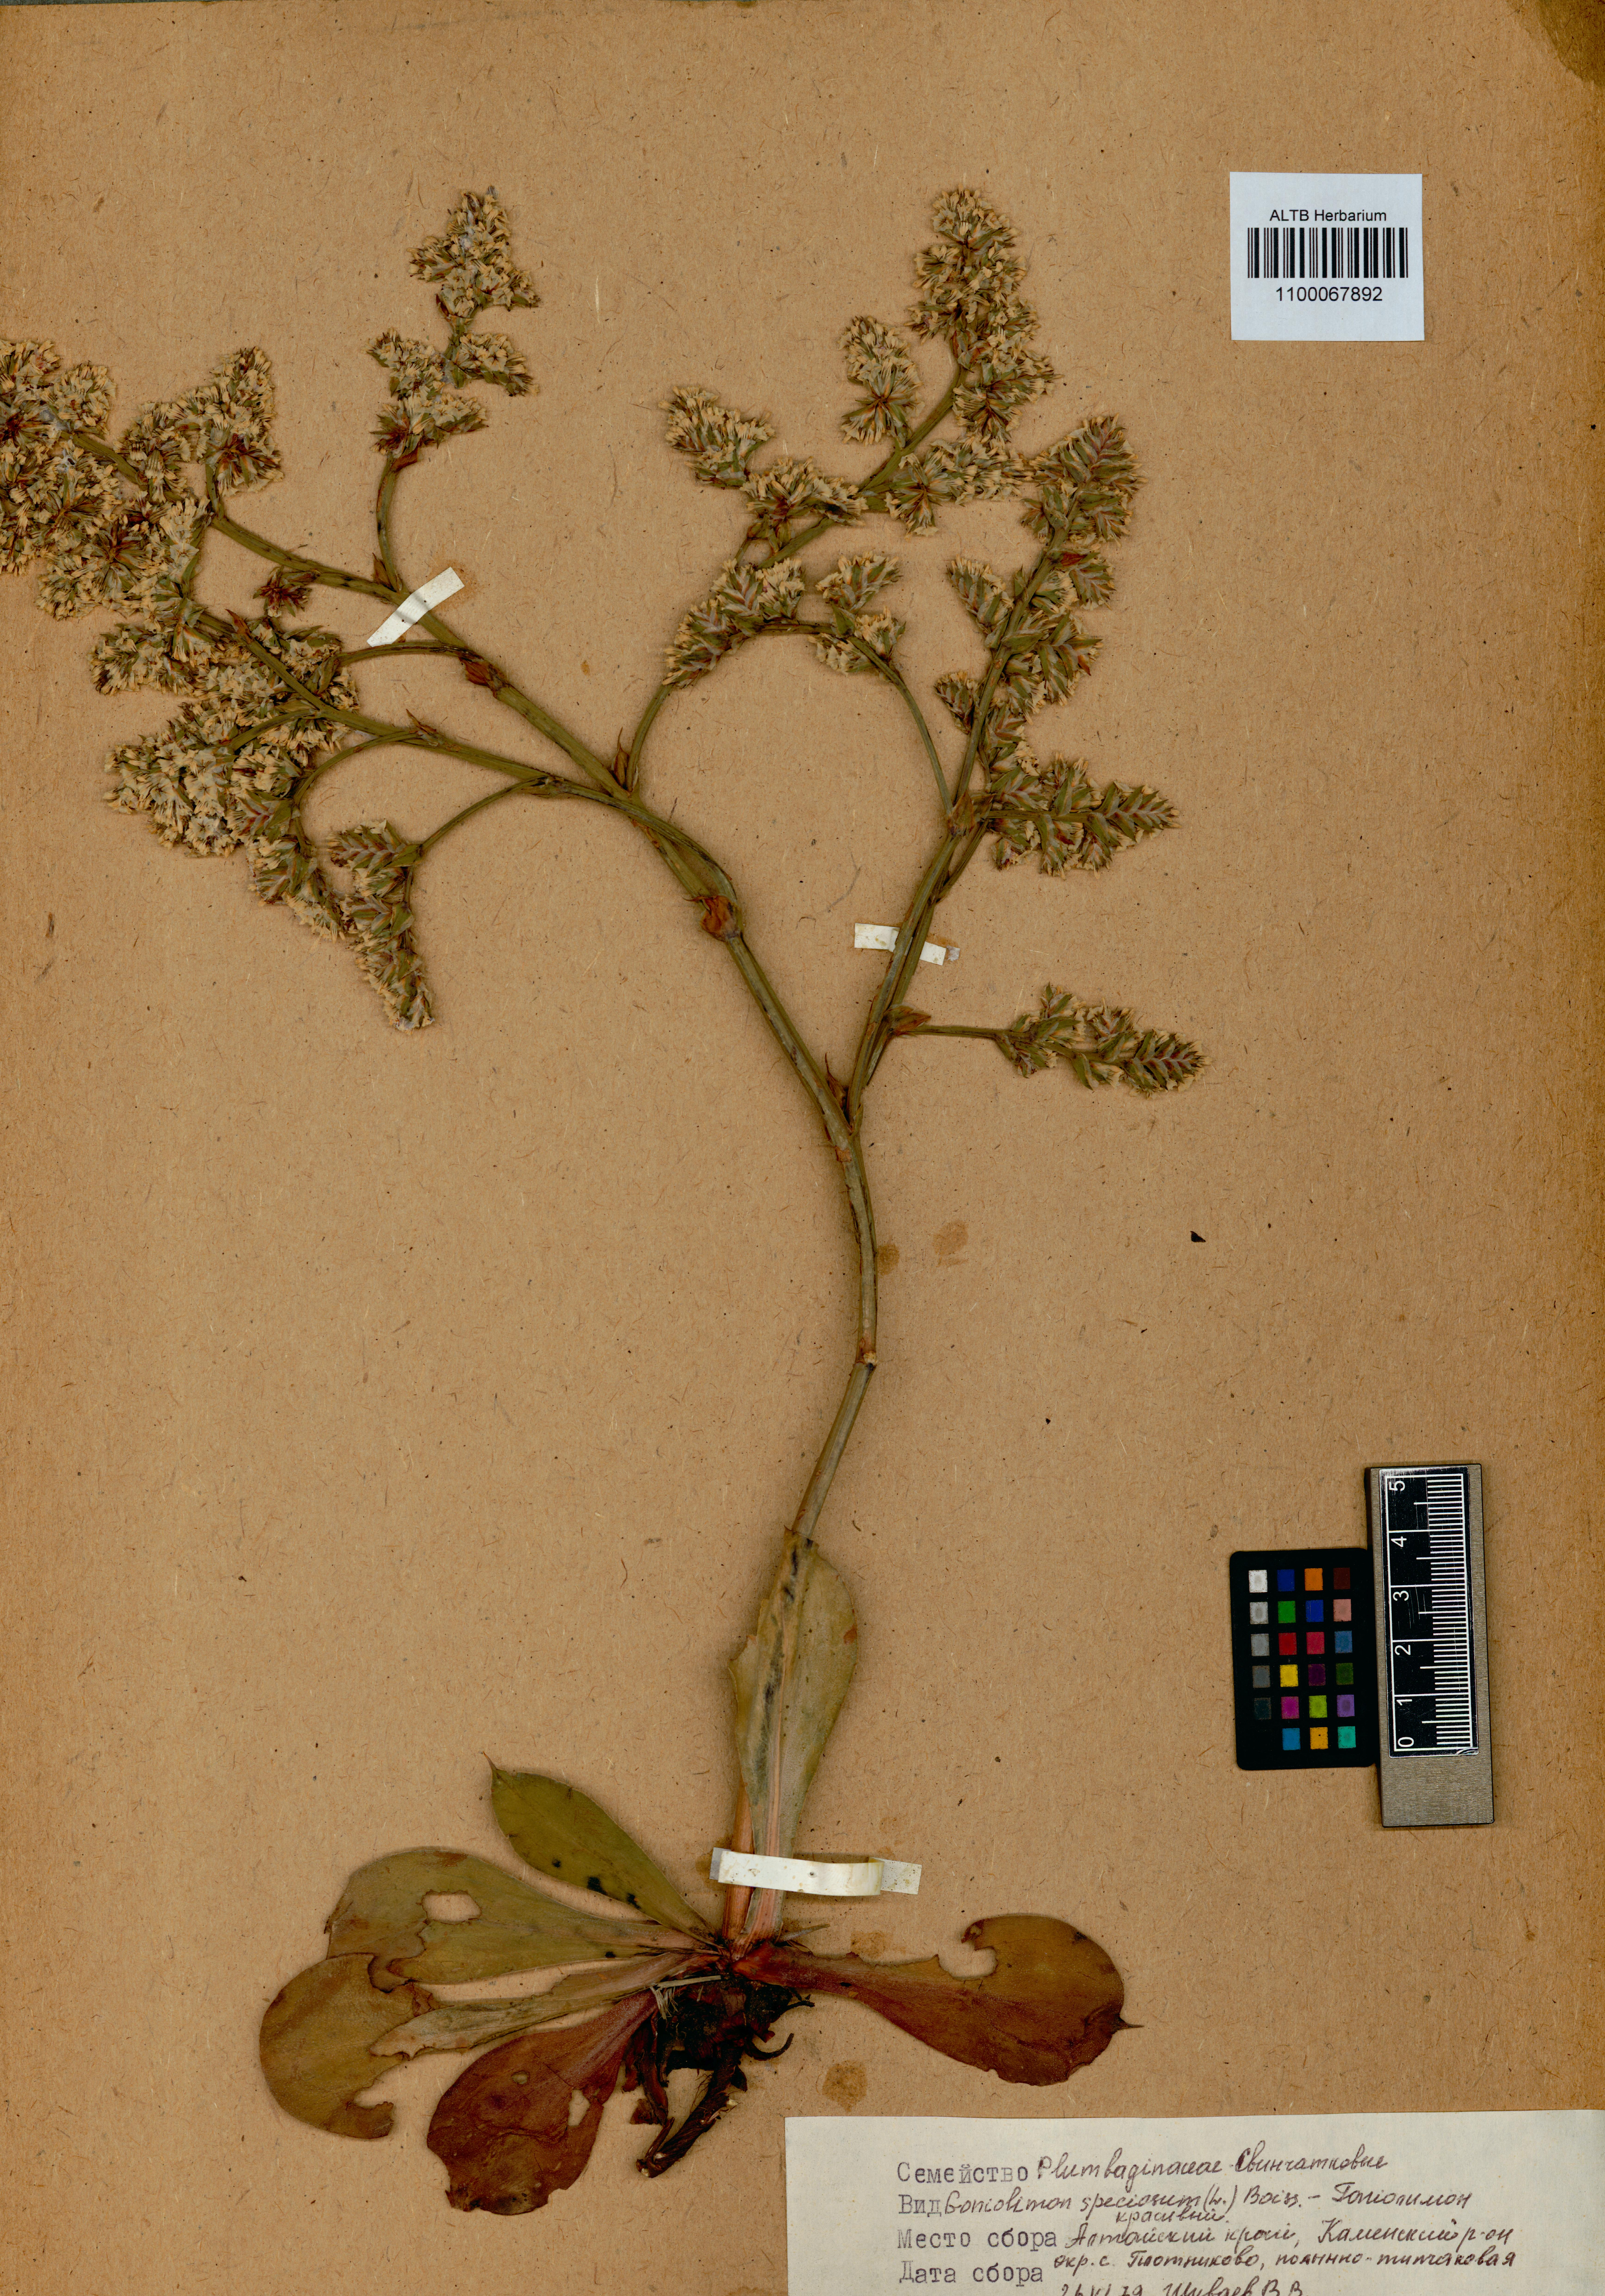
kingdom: Plantae
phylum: Tracheophyta
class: Magnoliopsida
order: Caryophyllales
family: Plumbaginaceae
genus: Goniolimon
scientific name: Goniolimon speciosum
